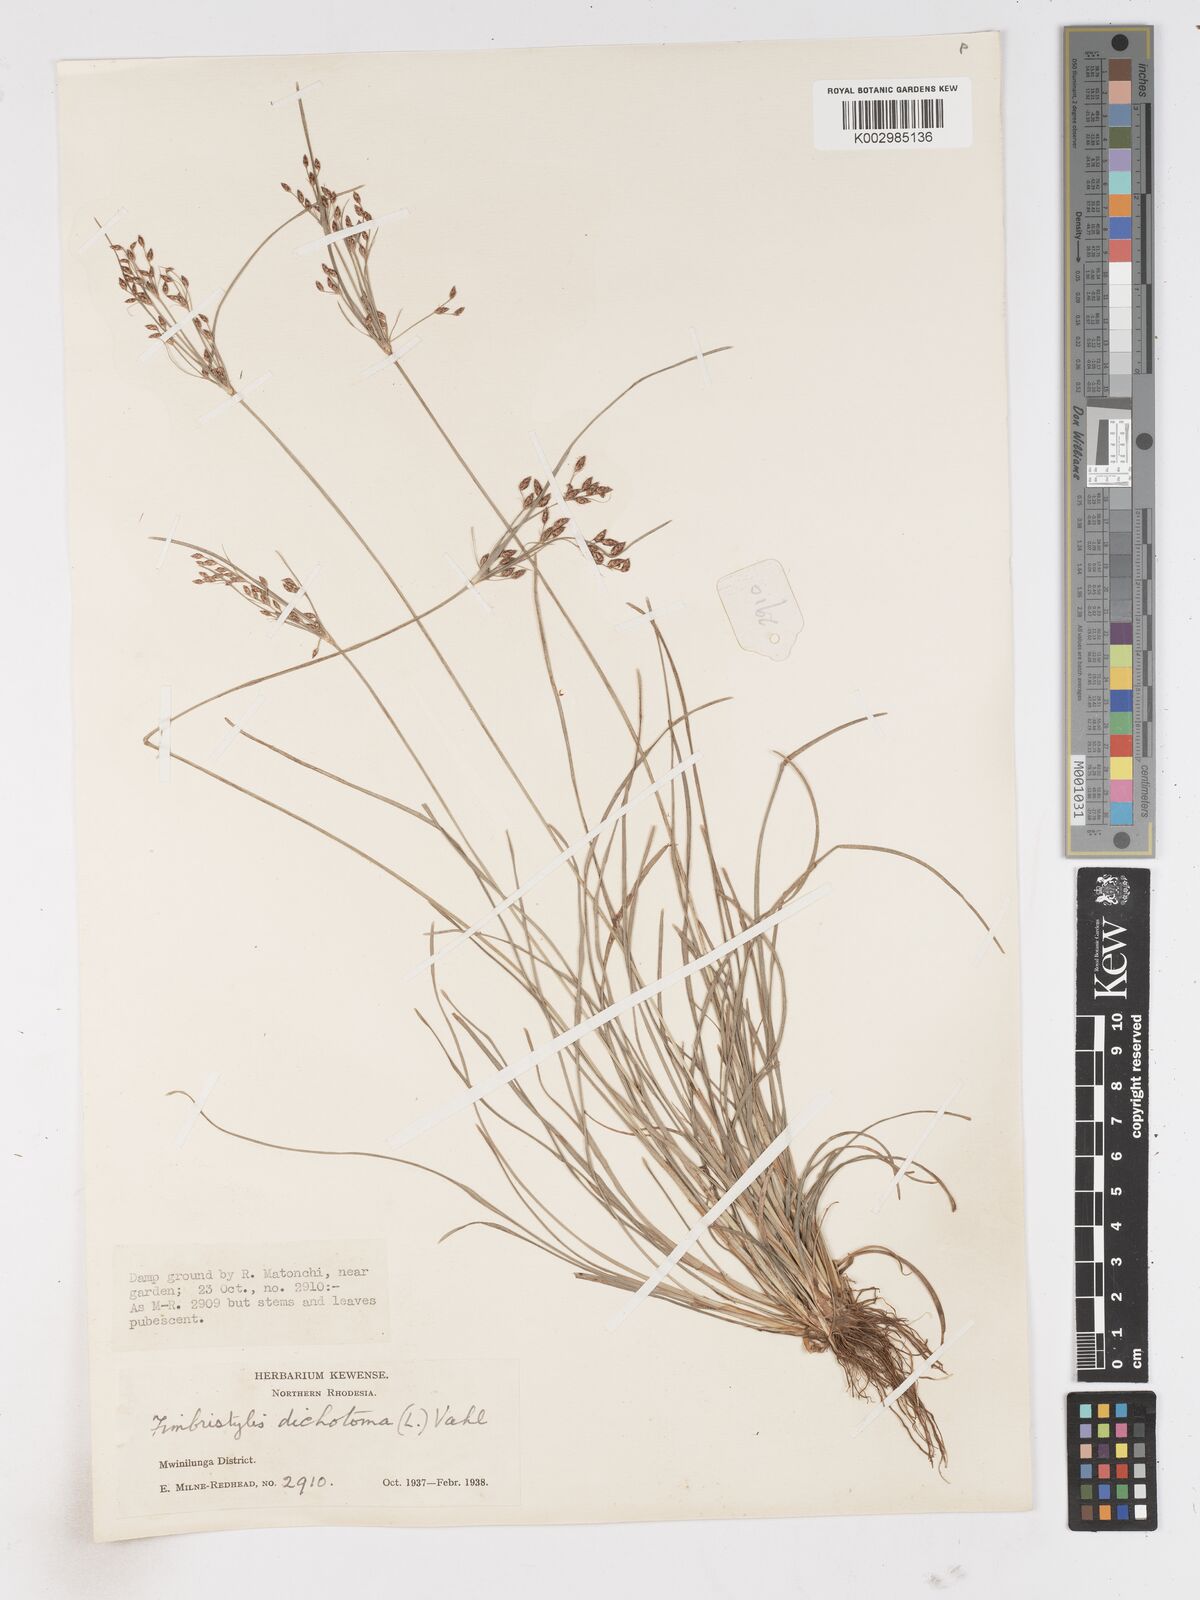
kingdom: Plantae
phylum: Tracheophyta
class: Liliopsida
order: Poales
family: Cyperaceae
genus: Fimbristylis
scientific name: Fimbristylis dichotoma
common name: Forked fimbry
